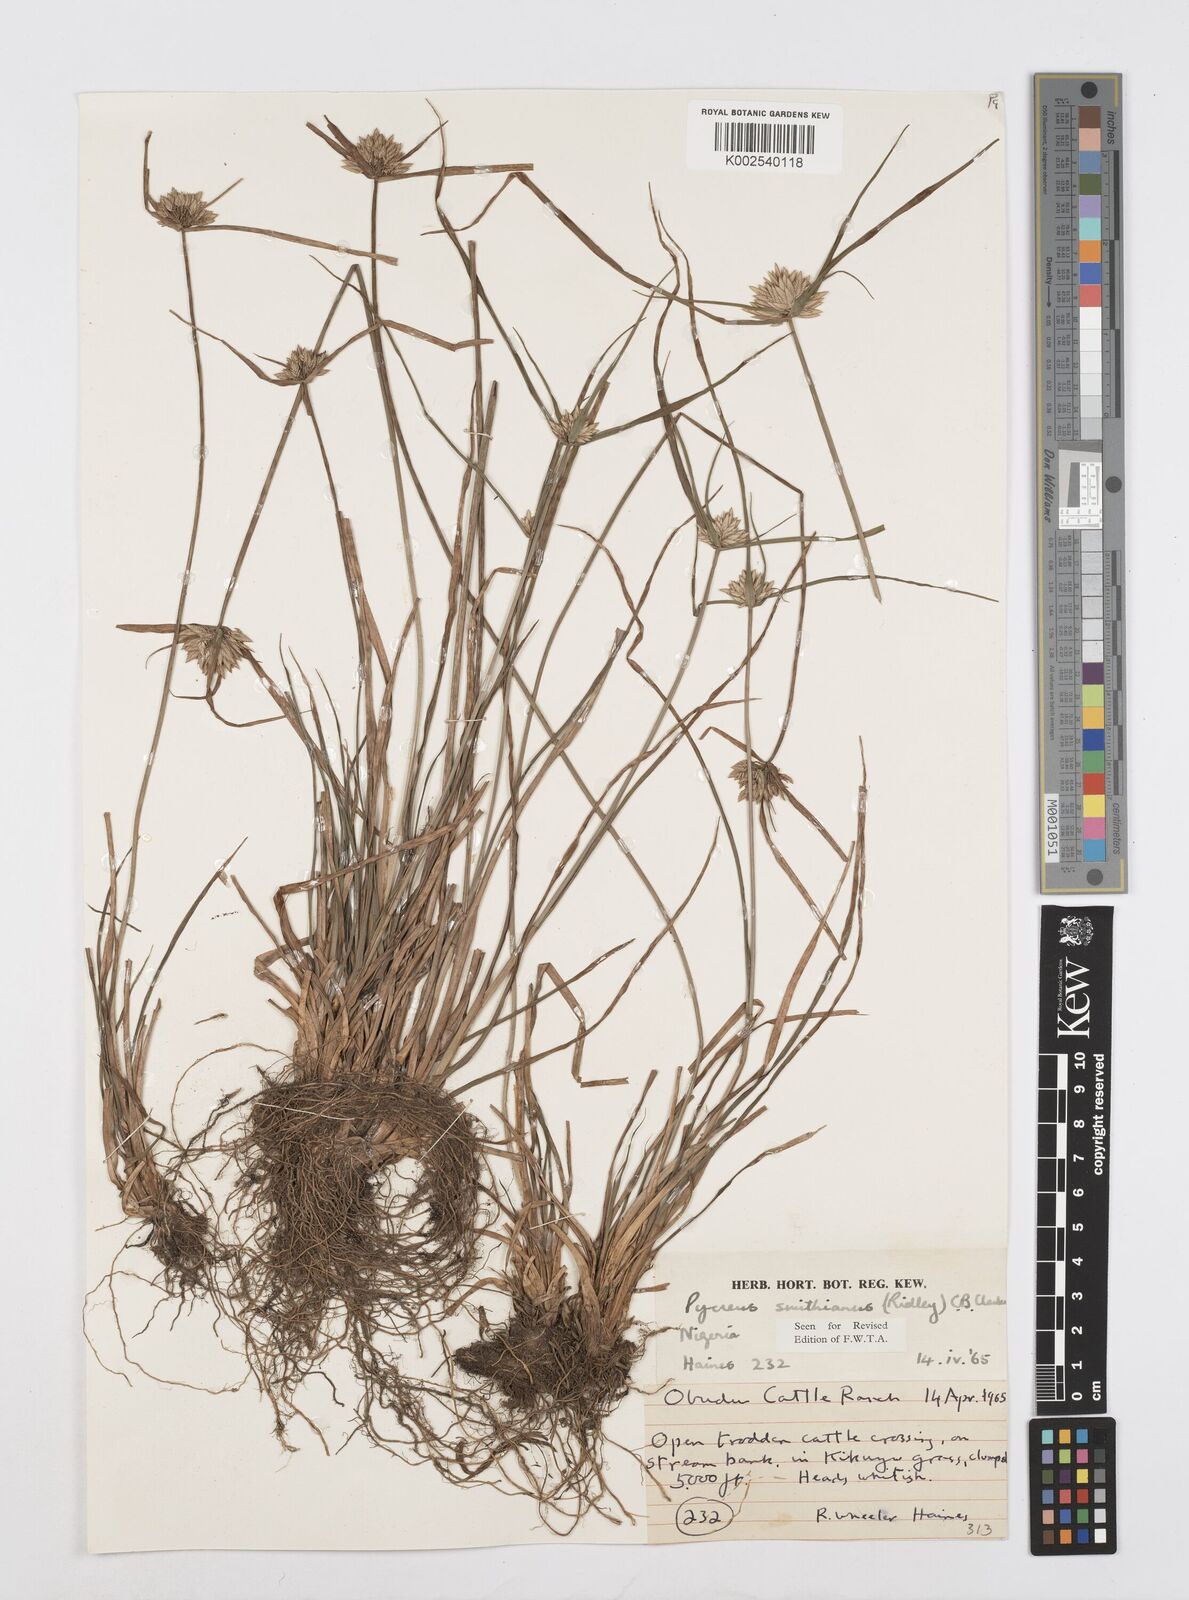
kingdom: Plantae
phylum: Tracheophyta
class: Liliopsida
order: Poales
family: Cyperaceae
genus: Cyperus
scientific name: Cyperus smithianus
